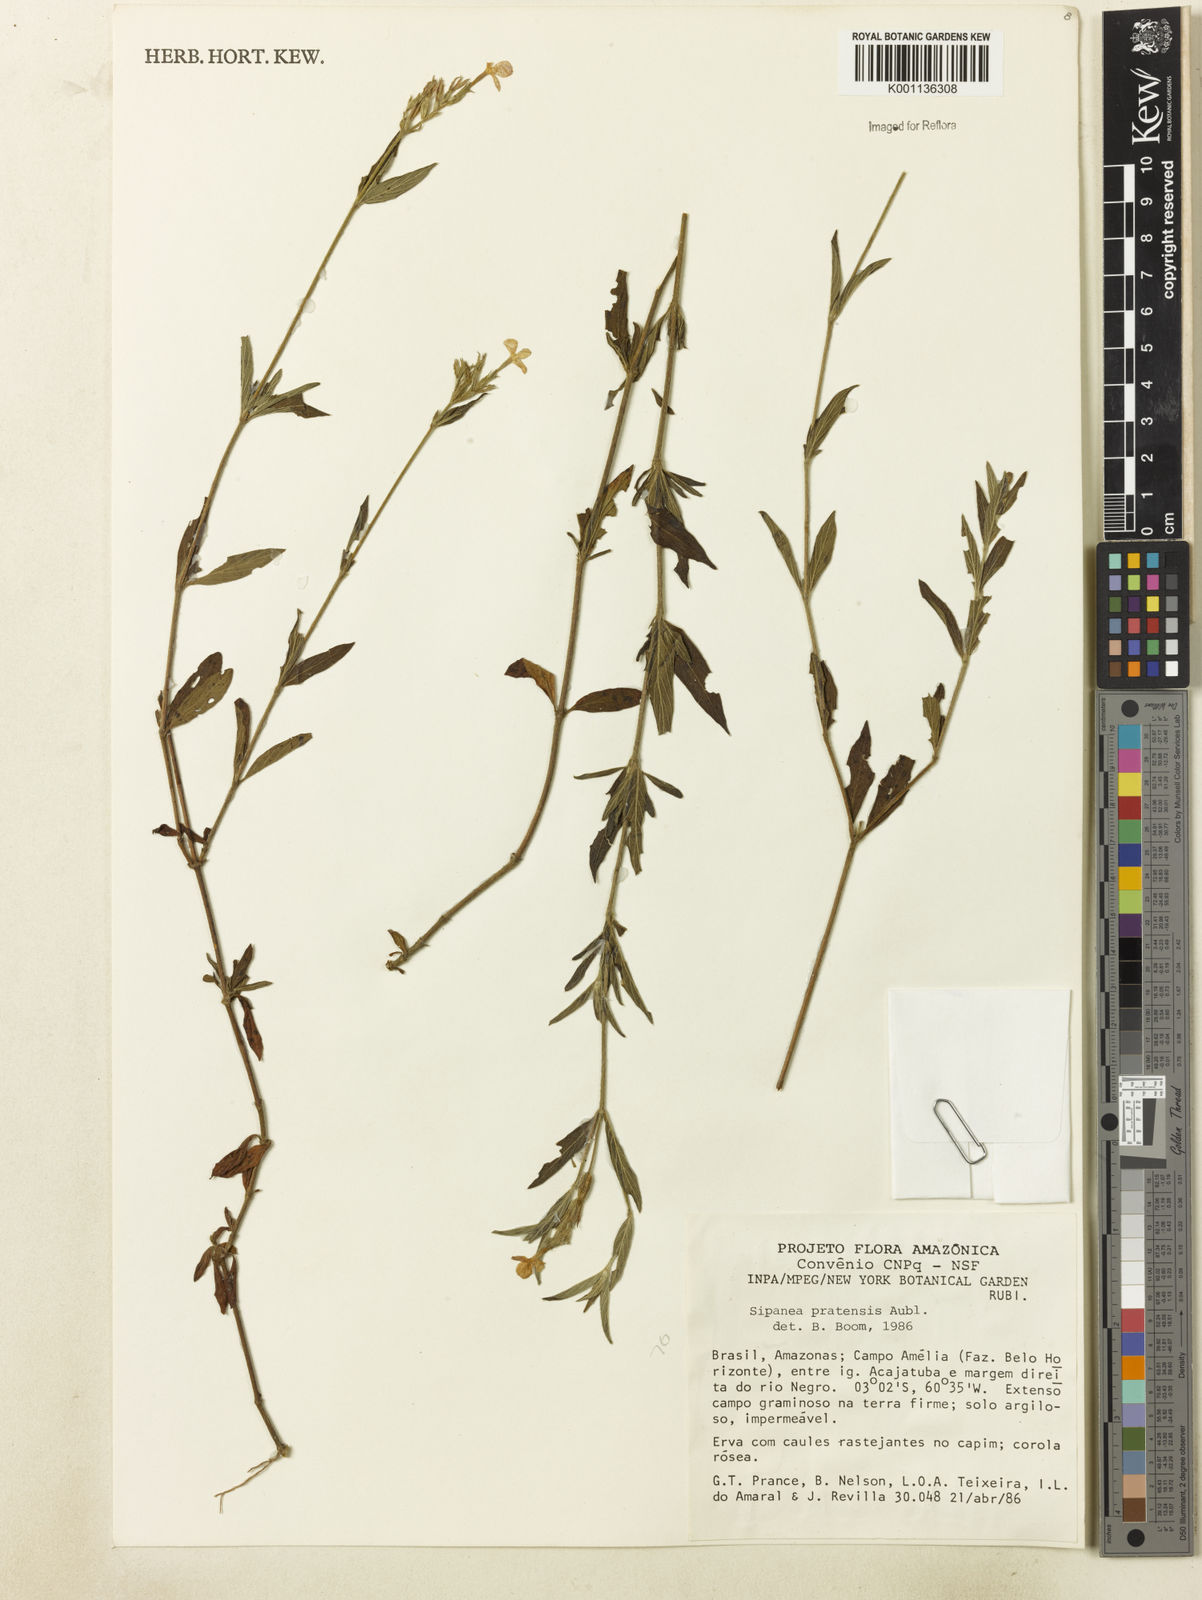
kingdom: Plantae
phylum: Tracheophyta
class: Magnoliopsida
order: Gentianales
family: Rubiaceae
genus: Sipanea
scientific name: Sipanea pratensis
